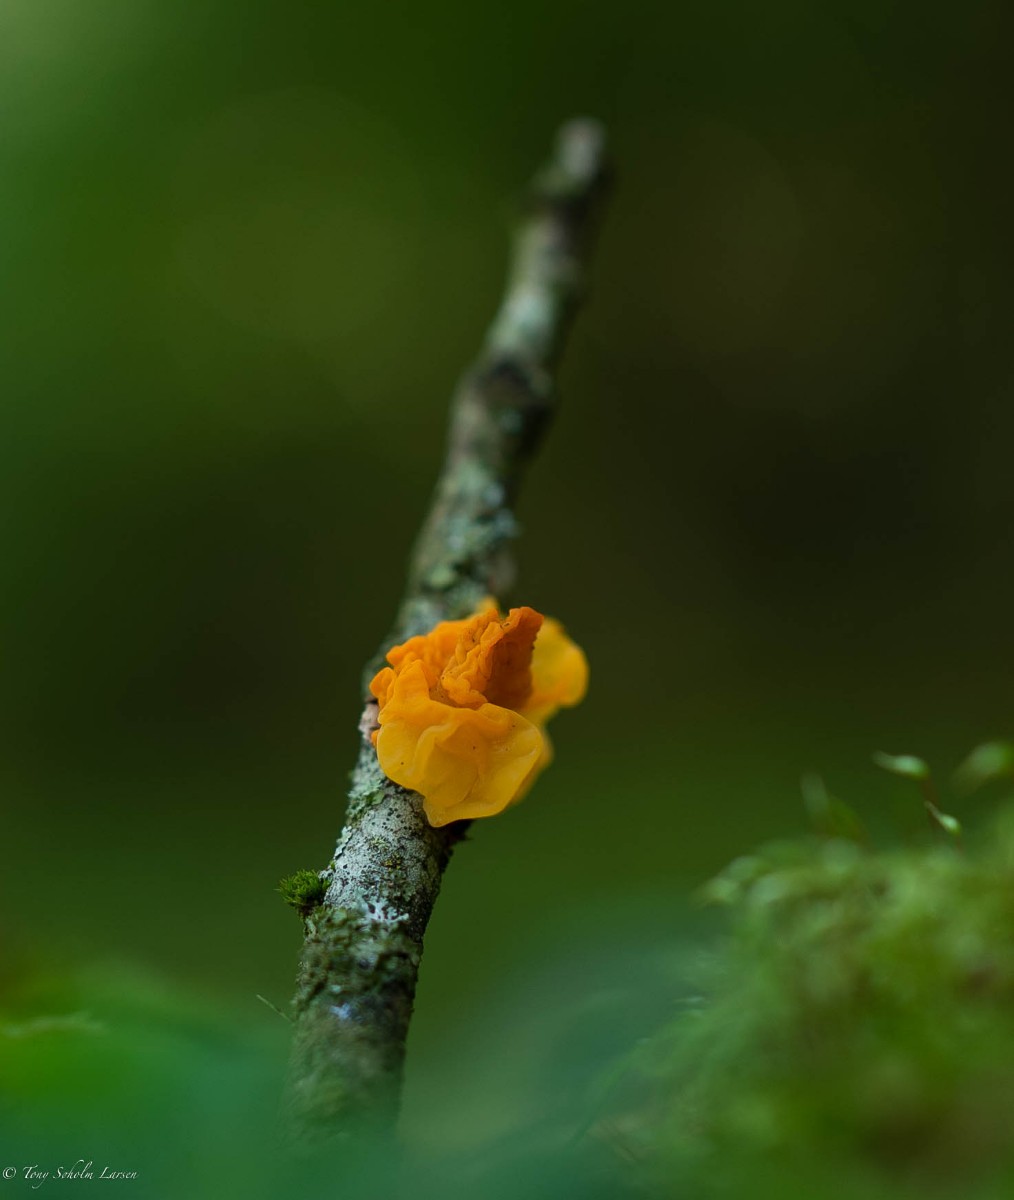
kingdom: Fungi
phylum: Basidiomycota
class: Tremellomycetes
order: Tremellales
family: Tremellaceae
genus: Tremella
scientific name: Tremella mesenterica
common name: gul bævresvamp
